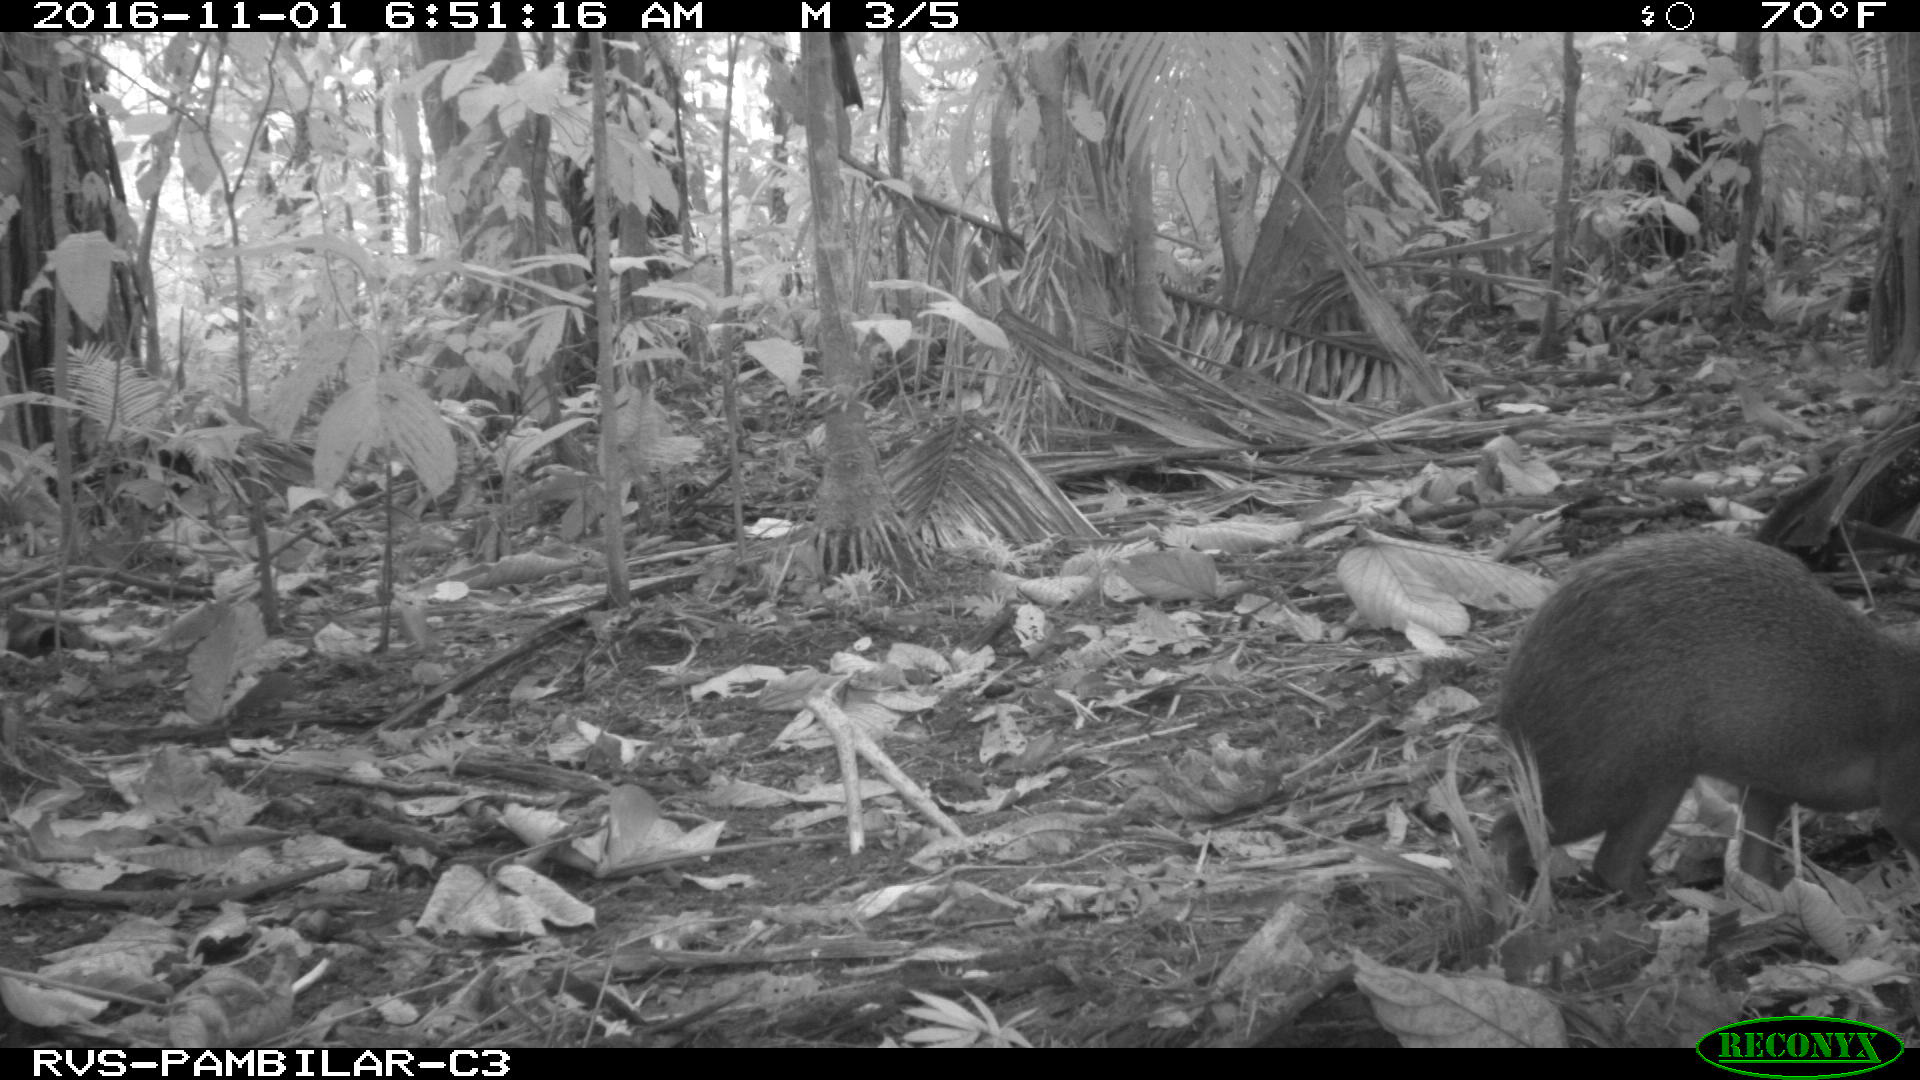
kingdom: Animalia
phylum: Chordata
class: Mammalia
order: Rodentia
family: Dasyproctidae
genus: Dasyprocta
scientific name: Dasyprocta punctata
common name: Central american agouti
